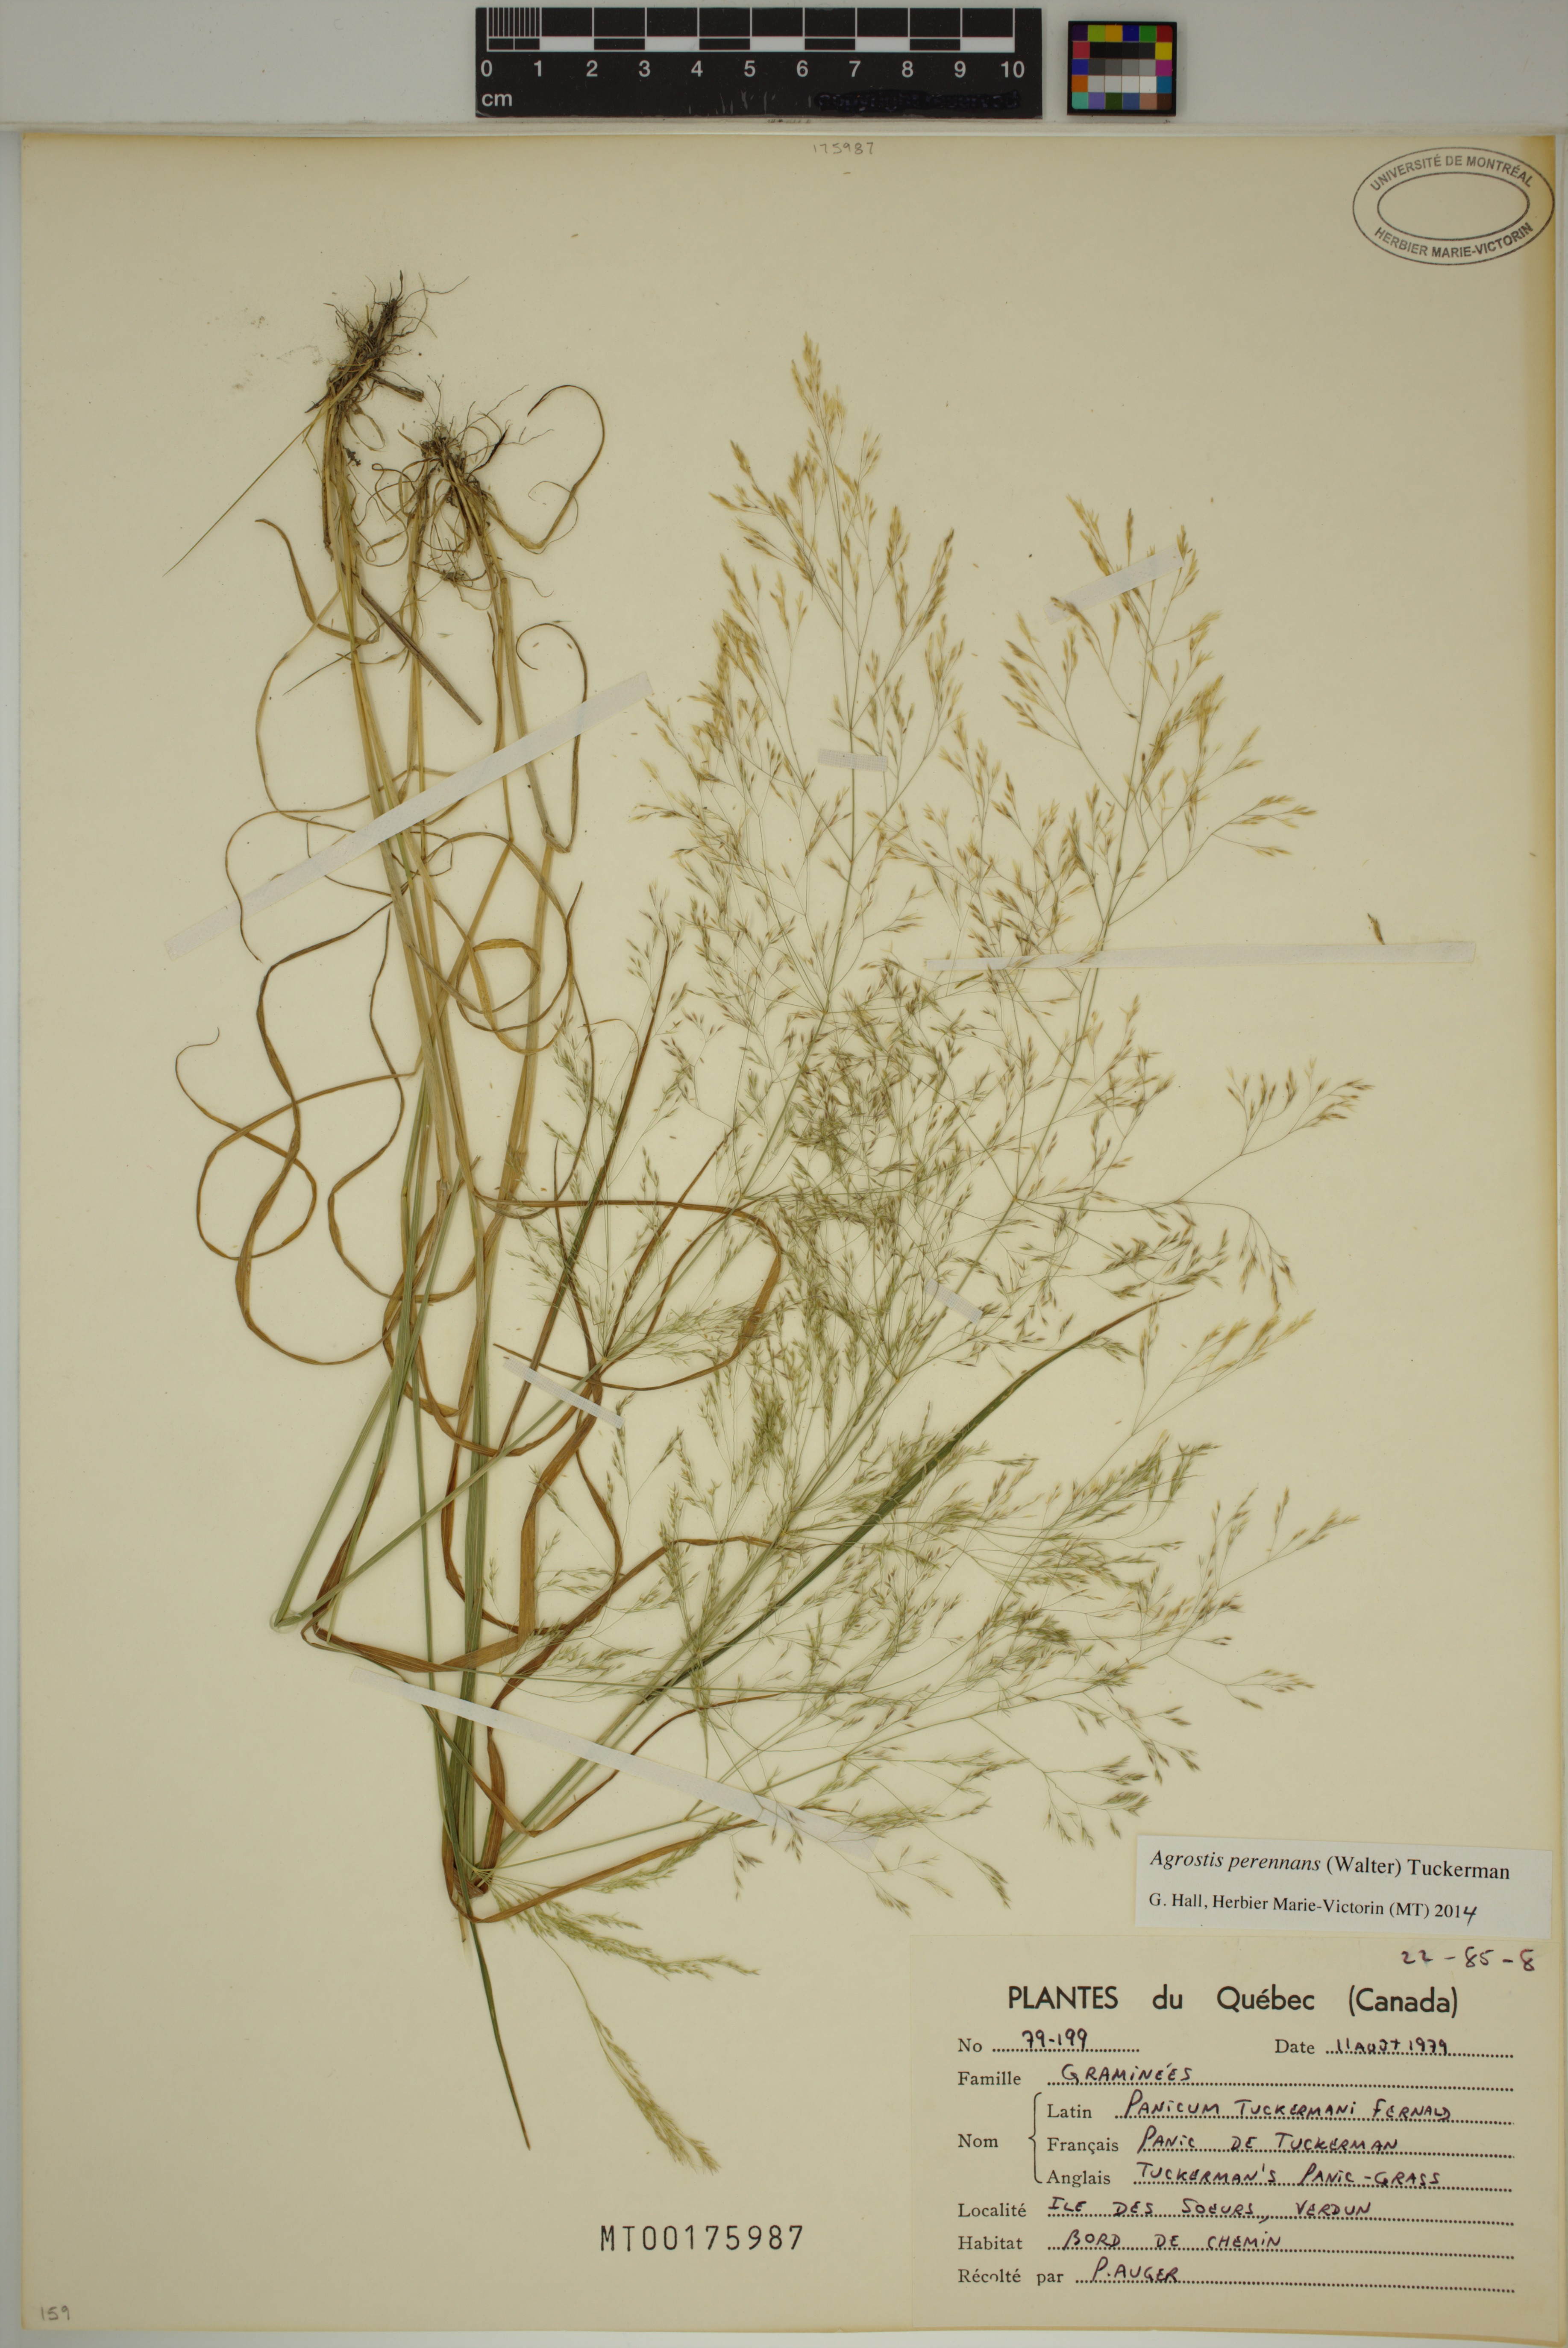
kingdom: Plantae
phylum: Tracheophyta
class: Liliopsida
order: Poales
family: Poaceae
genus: Agrostis
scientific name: Agrostis perennans
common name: Autumn bent
